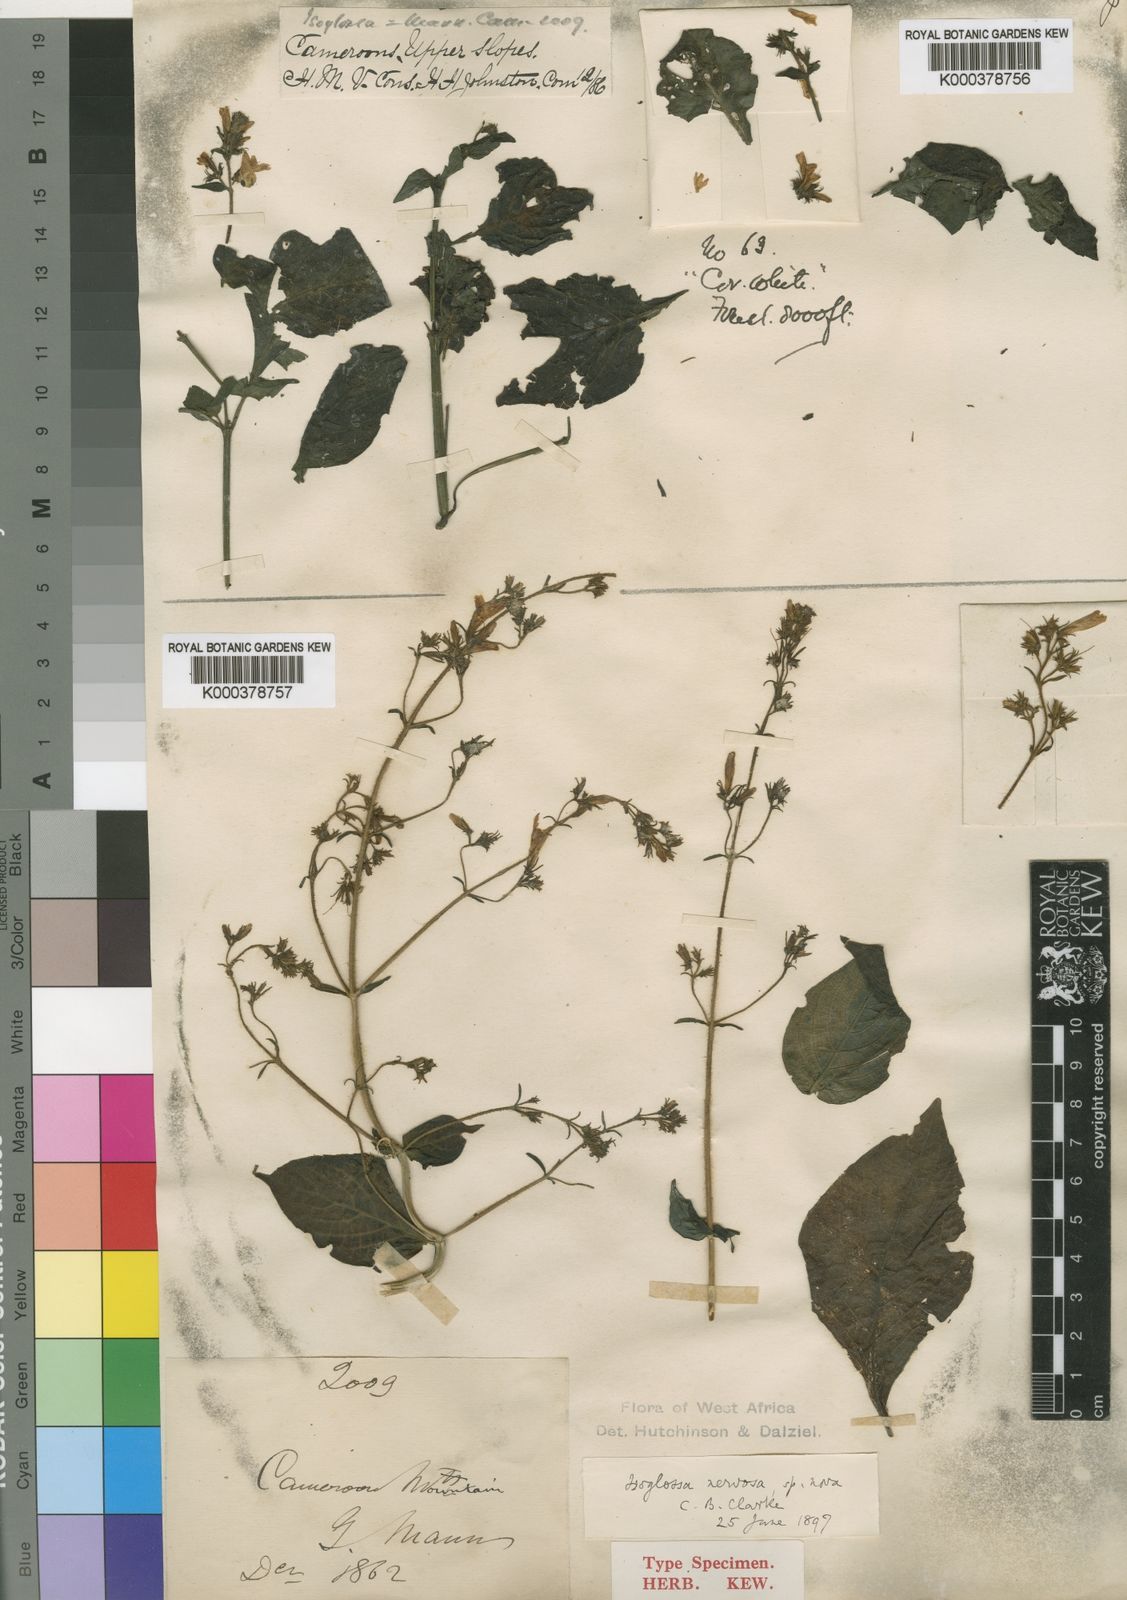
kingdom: Plantae
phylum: Tracheophyta
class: Magnoliopsida
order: Lamiales
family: Acanthaceae
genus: Isoglossa
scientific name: Isoglossa nervosa
